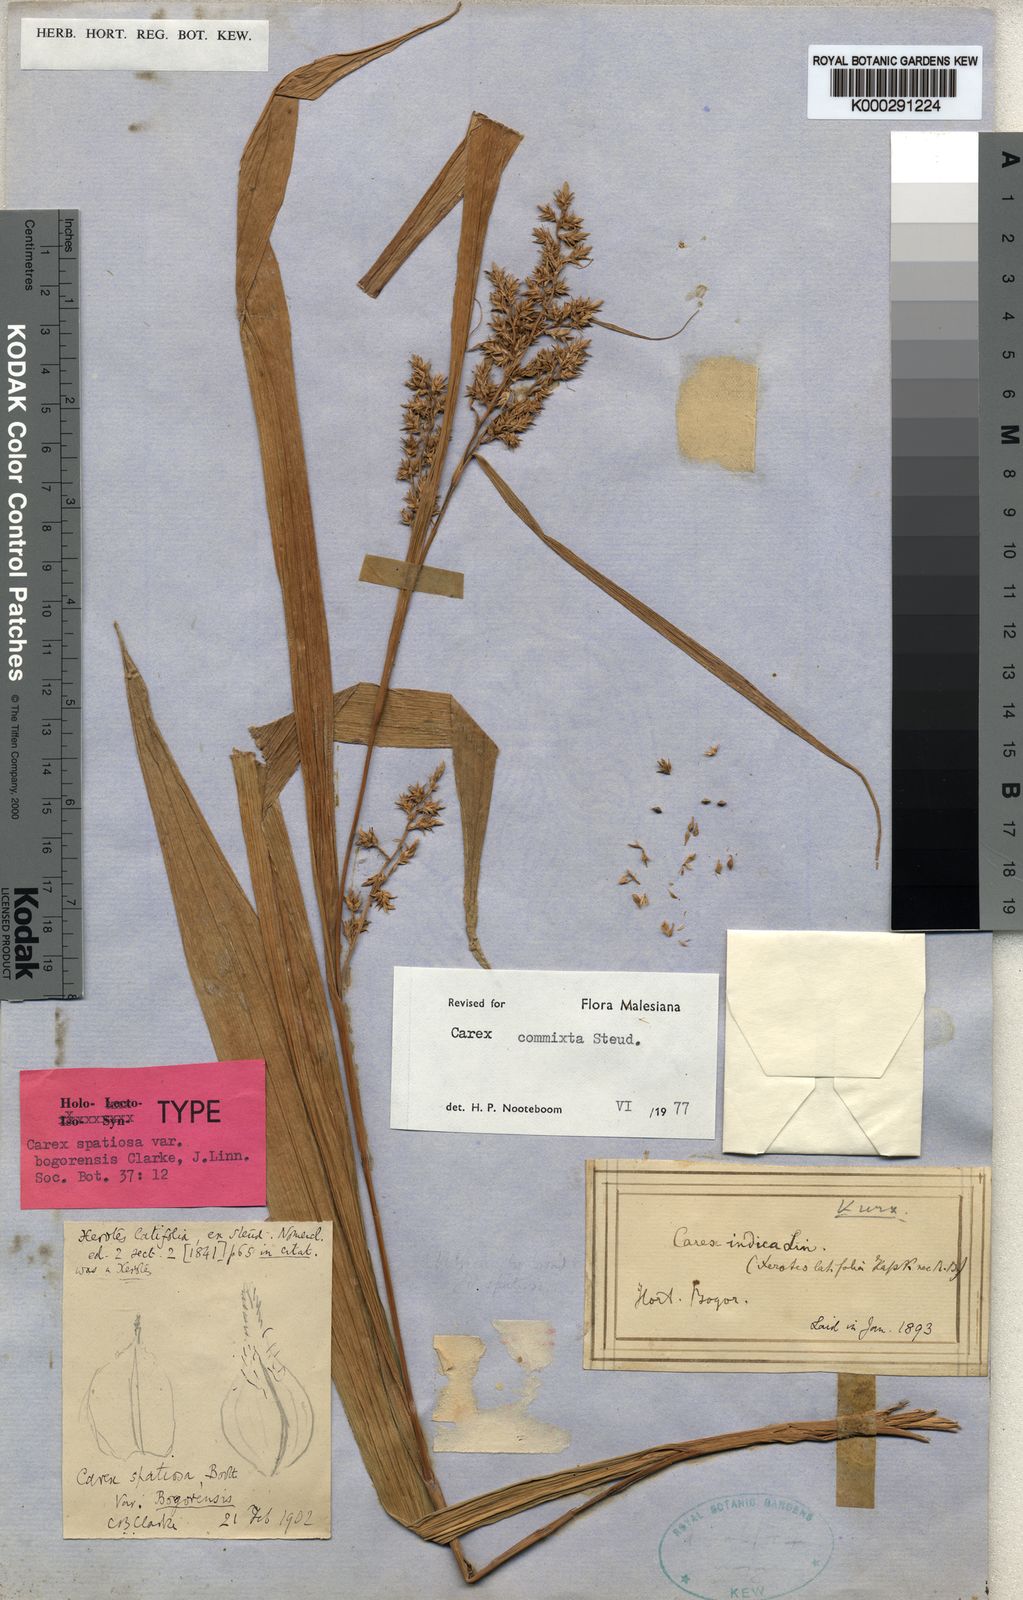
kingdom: Plantae
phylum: Tracheophyta
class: Liliopsida
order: Poales
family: Cyperaceae
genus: Carex
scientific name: Carex commixta
